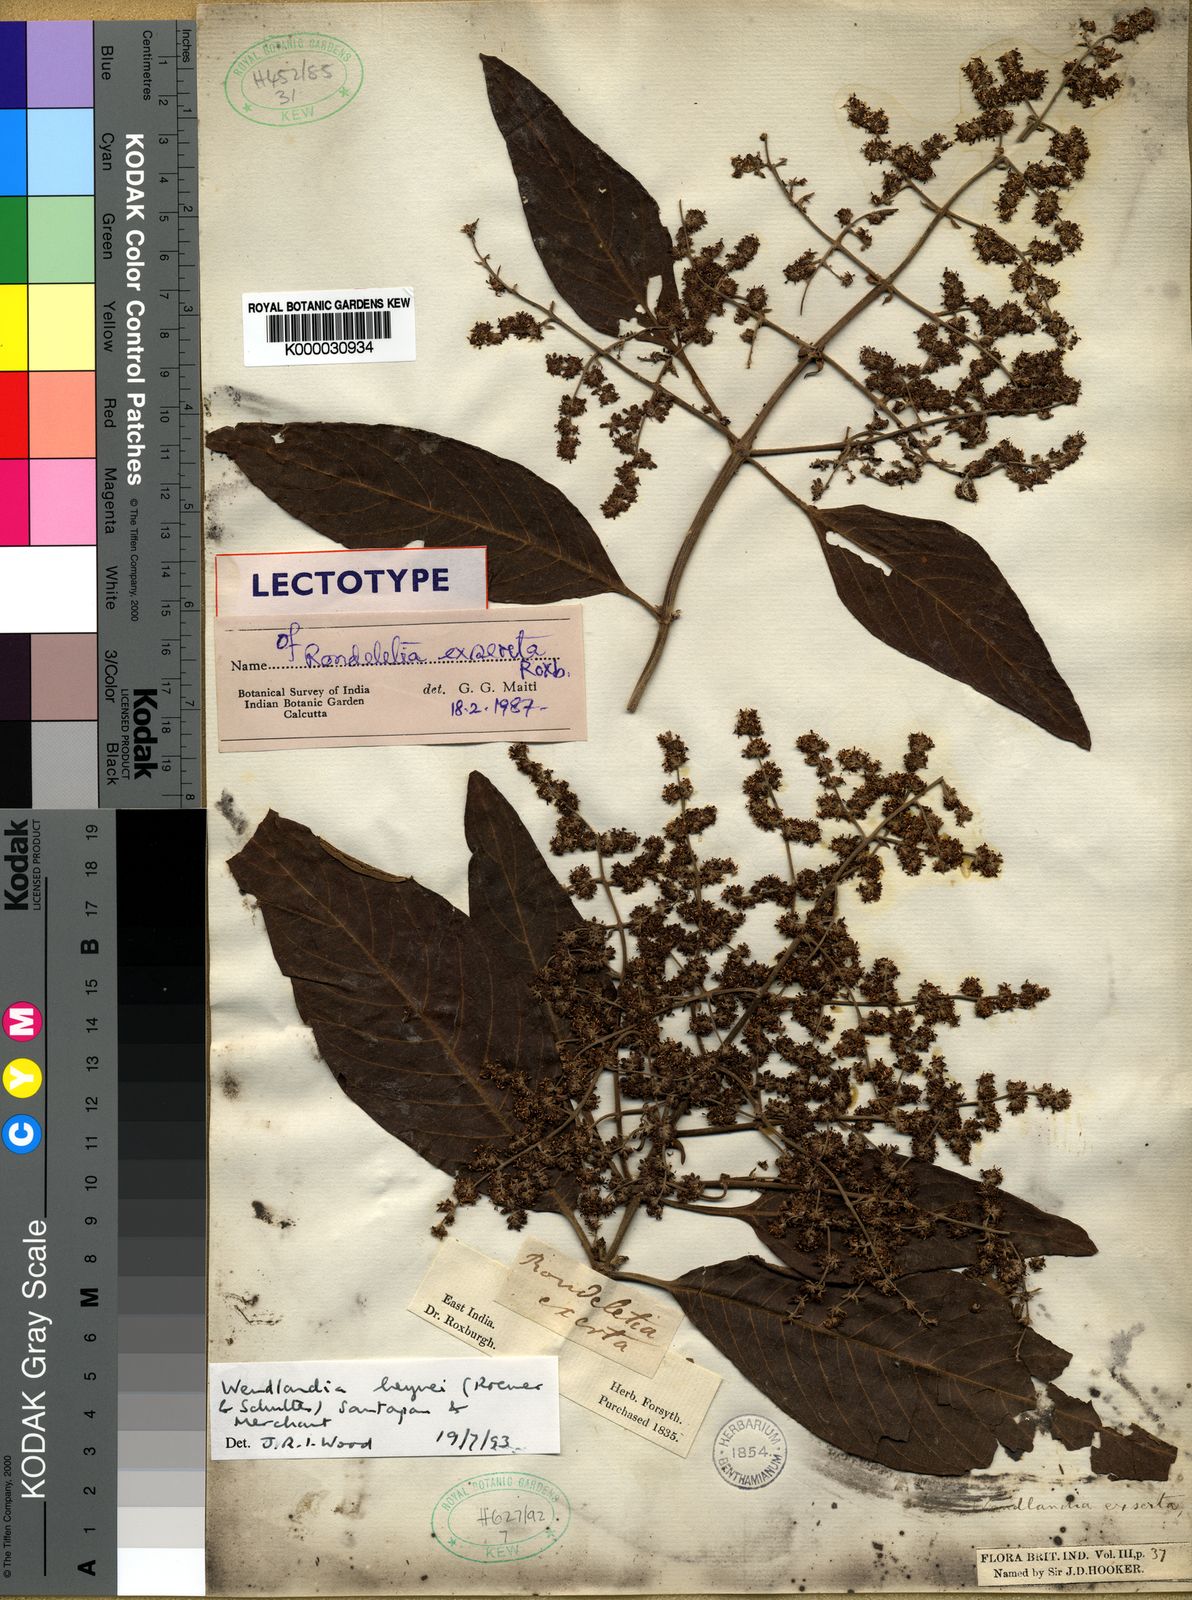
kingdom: Plantae
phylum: Tracheophyta
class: Magnoliopsida
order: Gentianales
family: Rubiaceae
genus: Wendlandia
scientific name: Wendlandia heyneana
